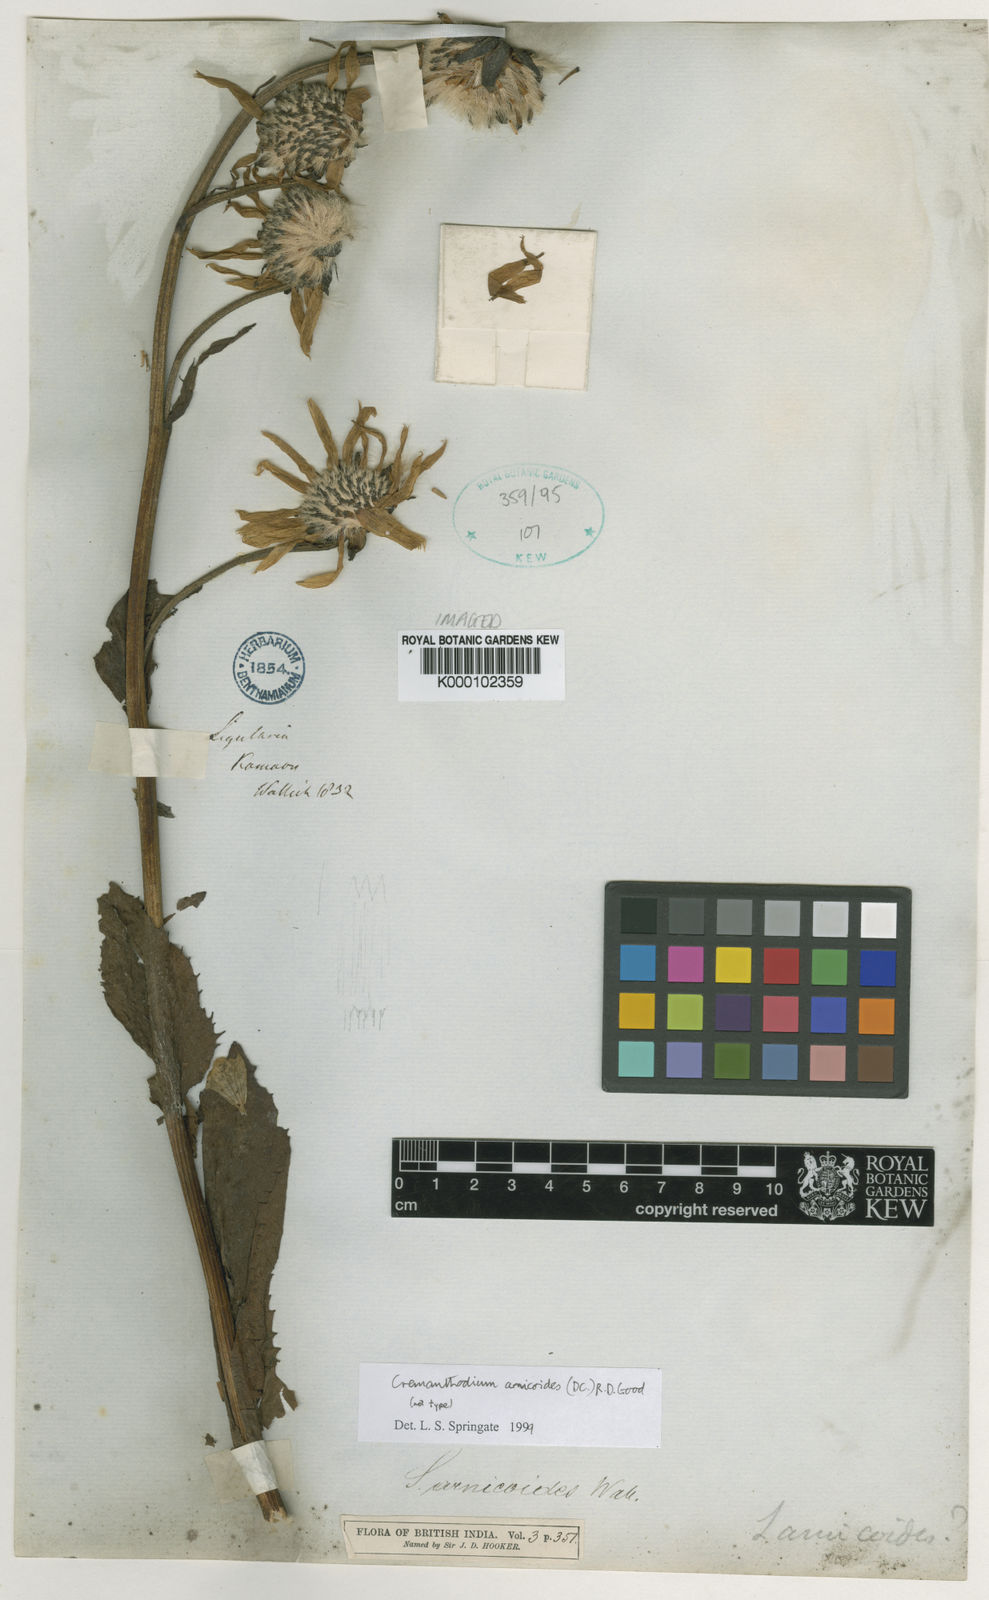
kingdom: Plantae
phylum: Tracheophyta
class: Magnoliopsida
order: Asterales
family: Asteraceae
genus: Cremanthodium
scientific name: Cremanthodium arnicoides
